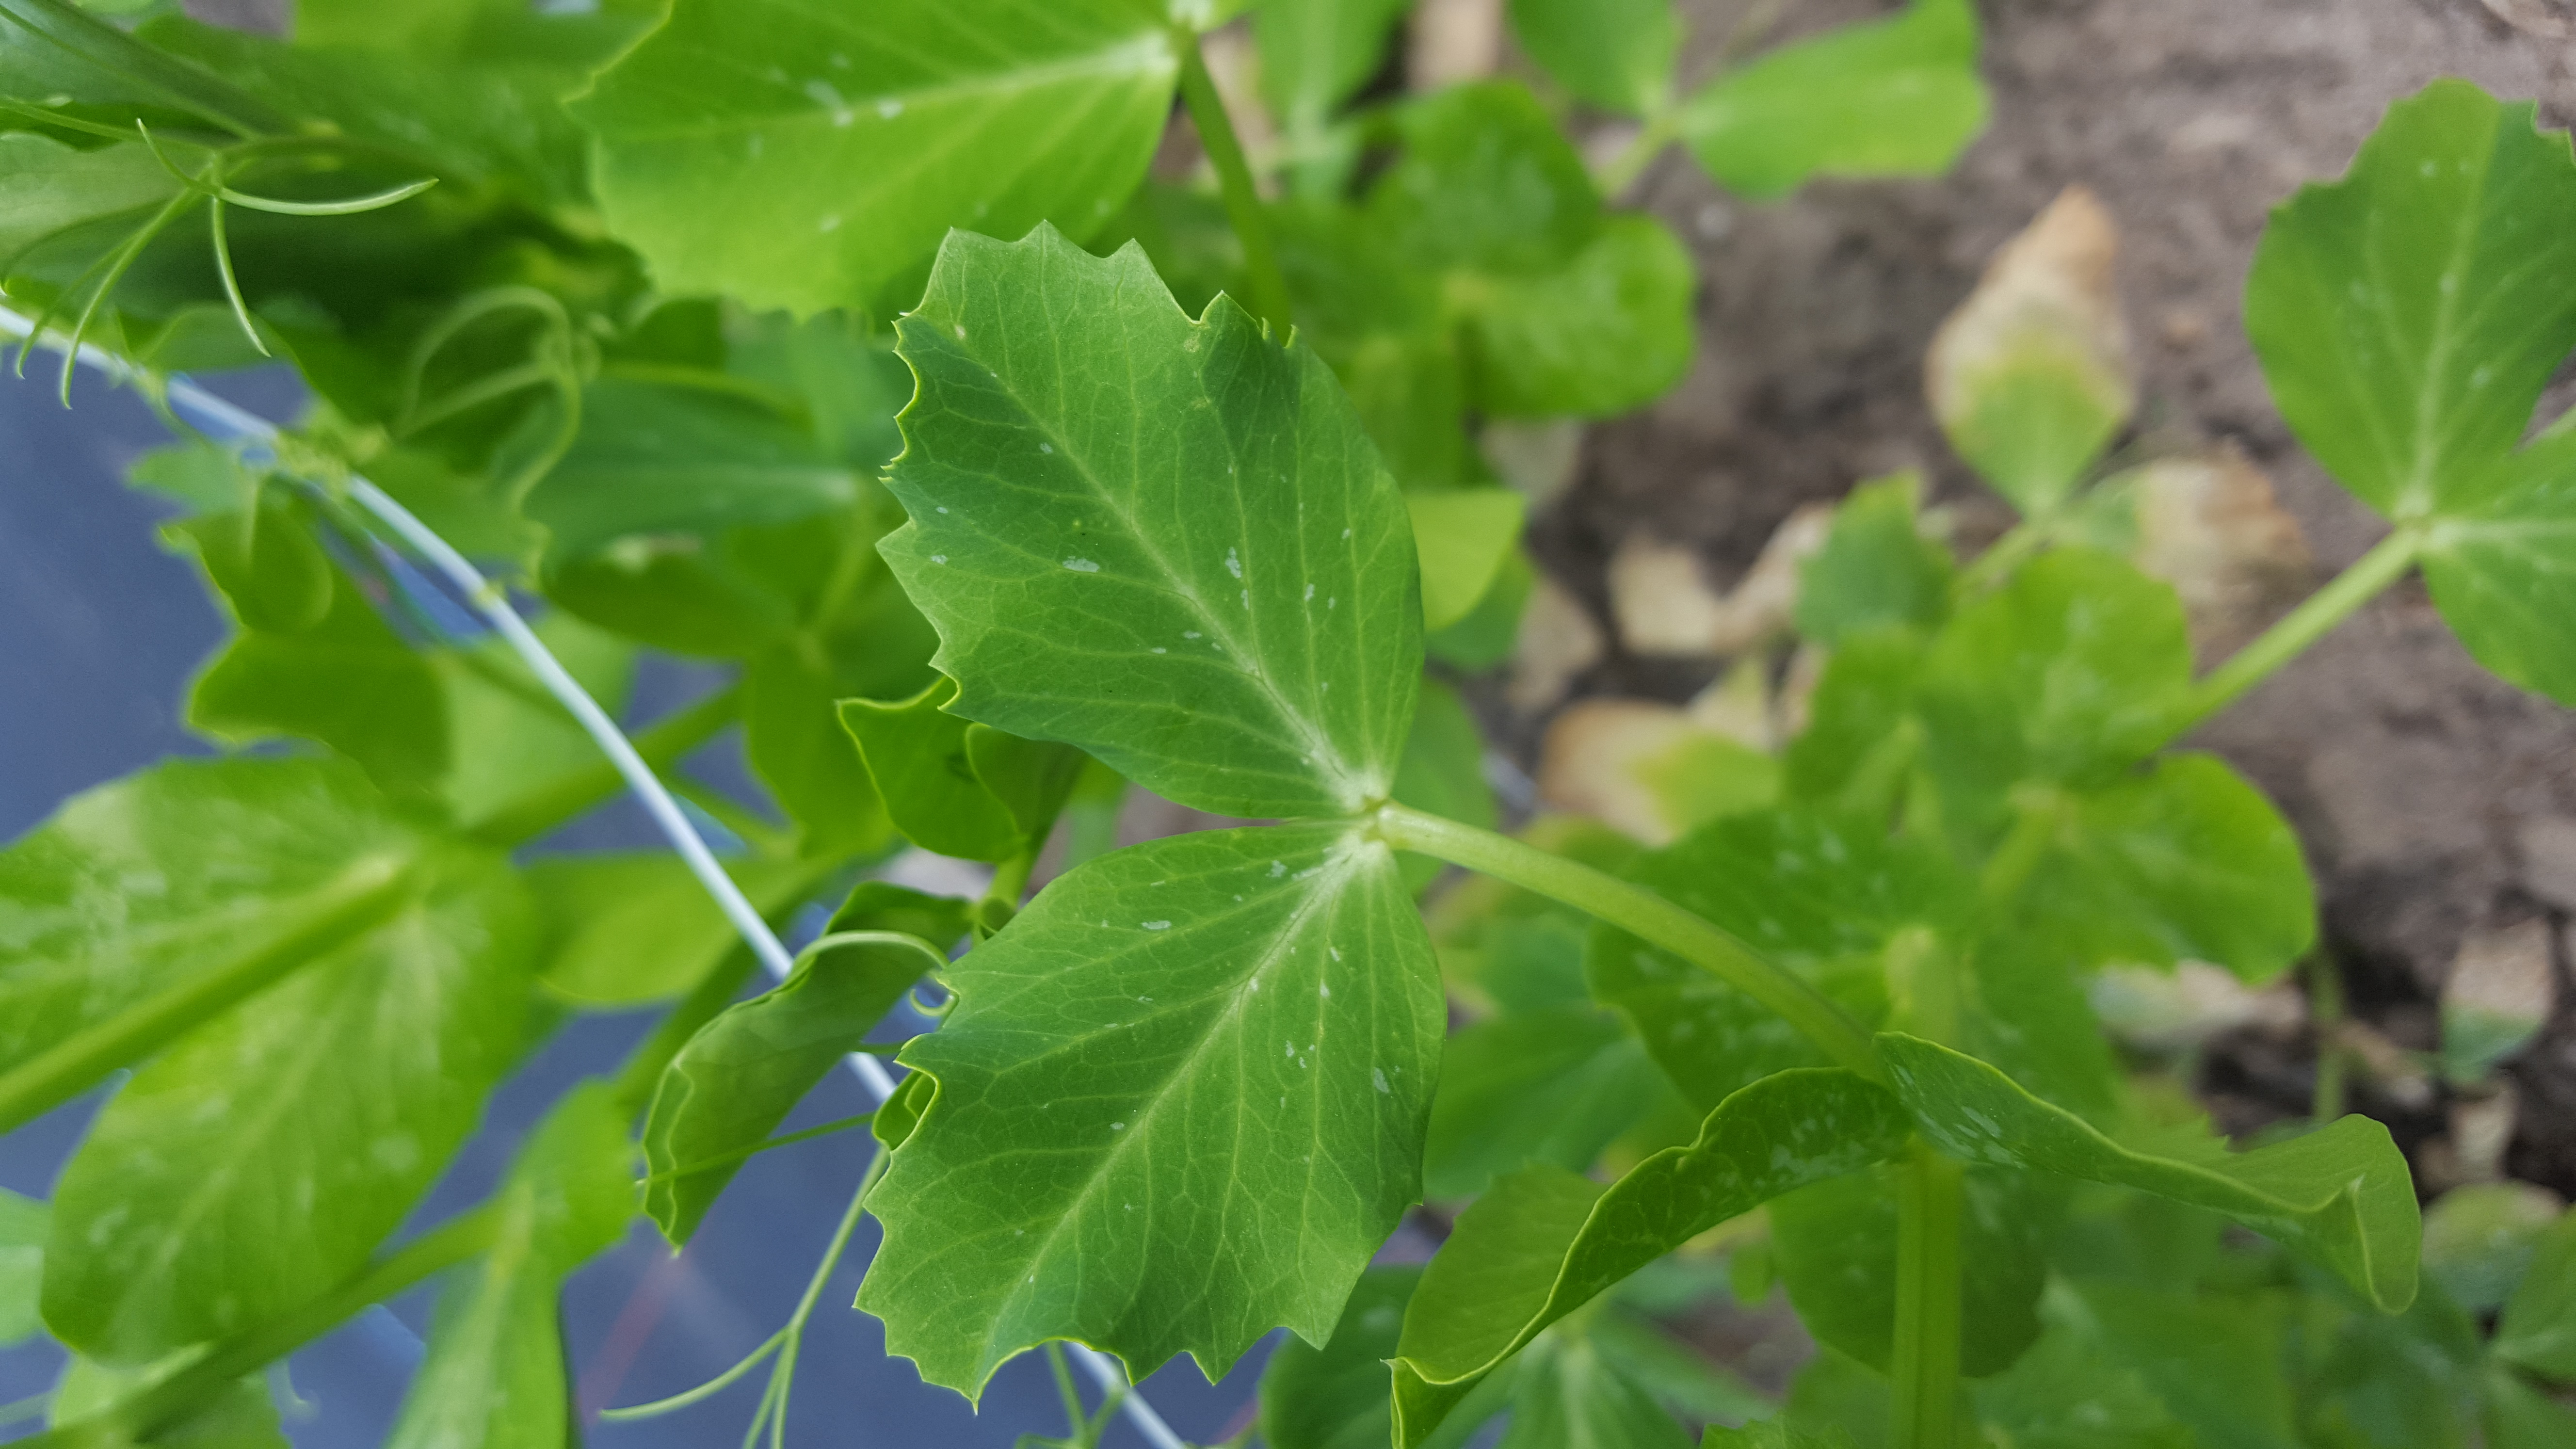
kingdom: Plantae
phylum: Tracheophyta
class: Magnoliopsida
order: Fabales
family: Fabaceae
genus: Lathyrus
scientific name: Lathyrus oleraceus
